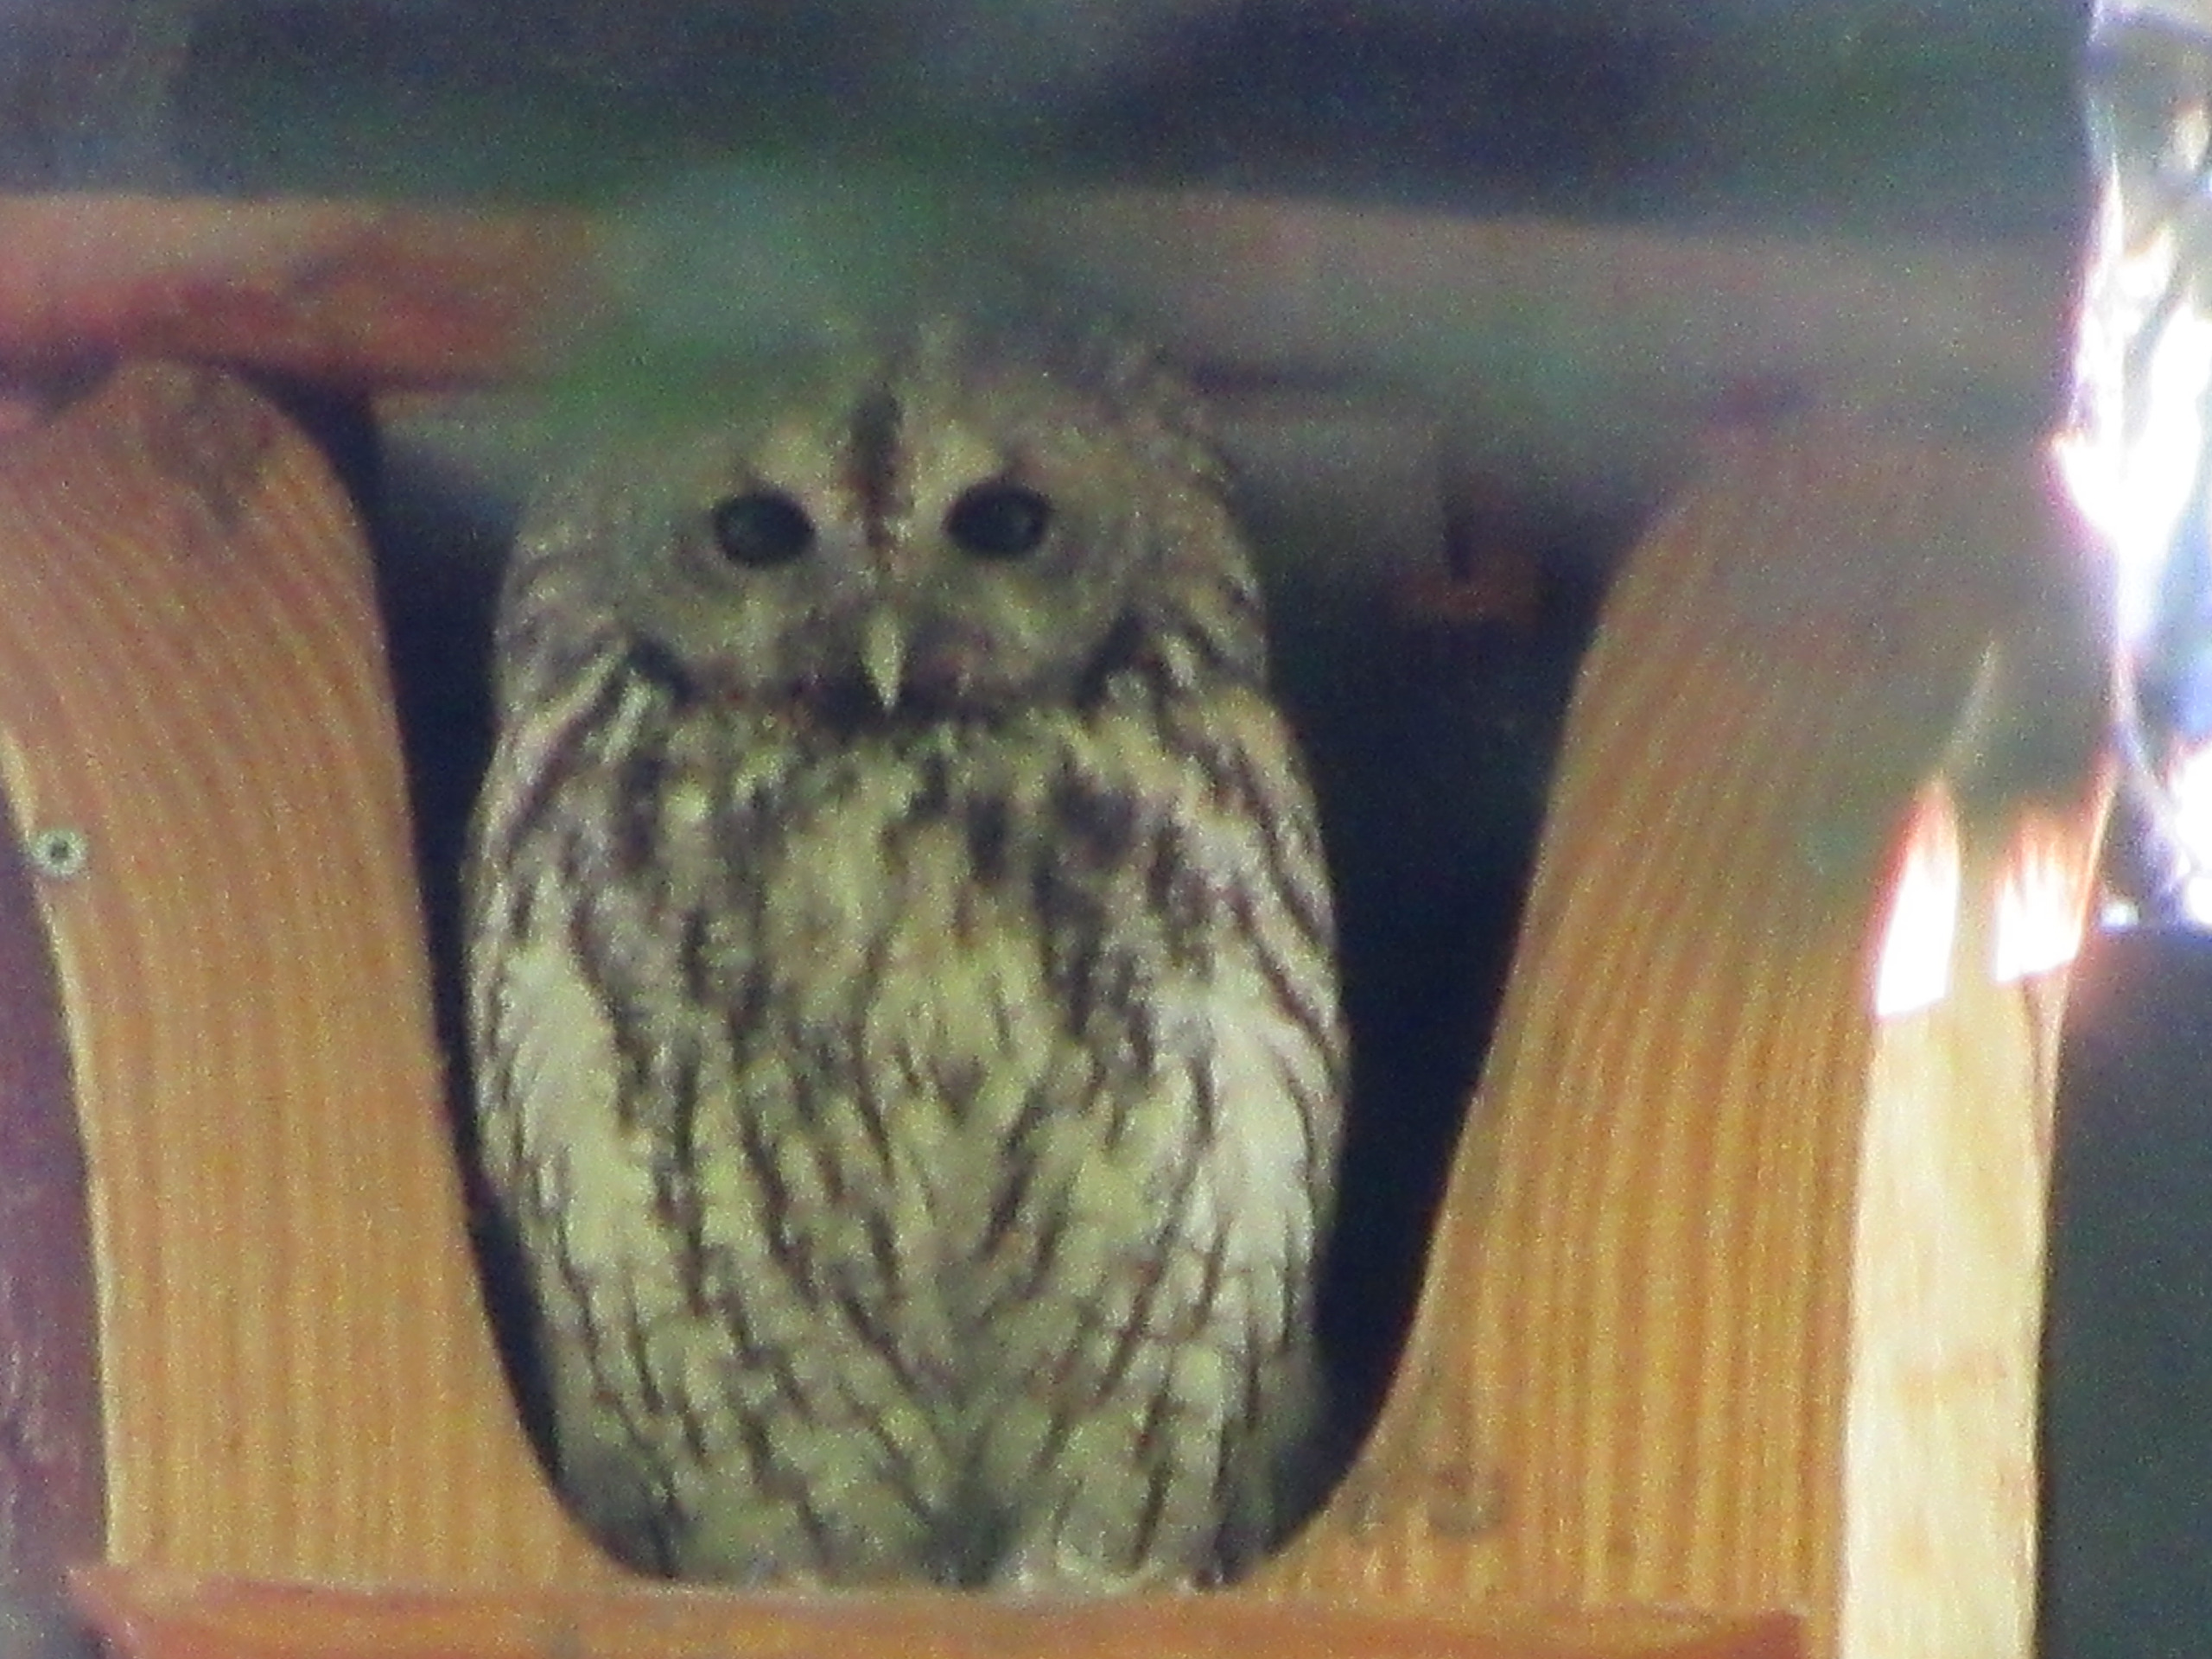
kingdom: Animalia
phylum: Chordata
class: Aves
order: Strigiformes
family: Strigidae
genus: Strix
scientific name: Strix aluco
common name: Natugle
